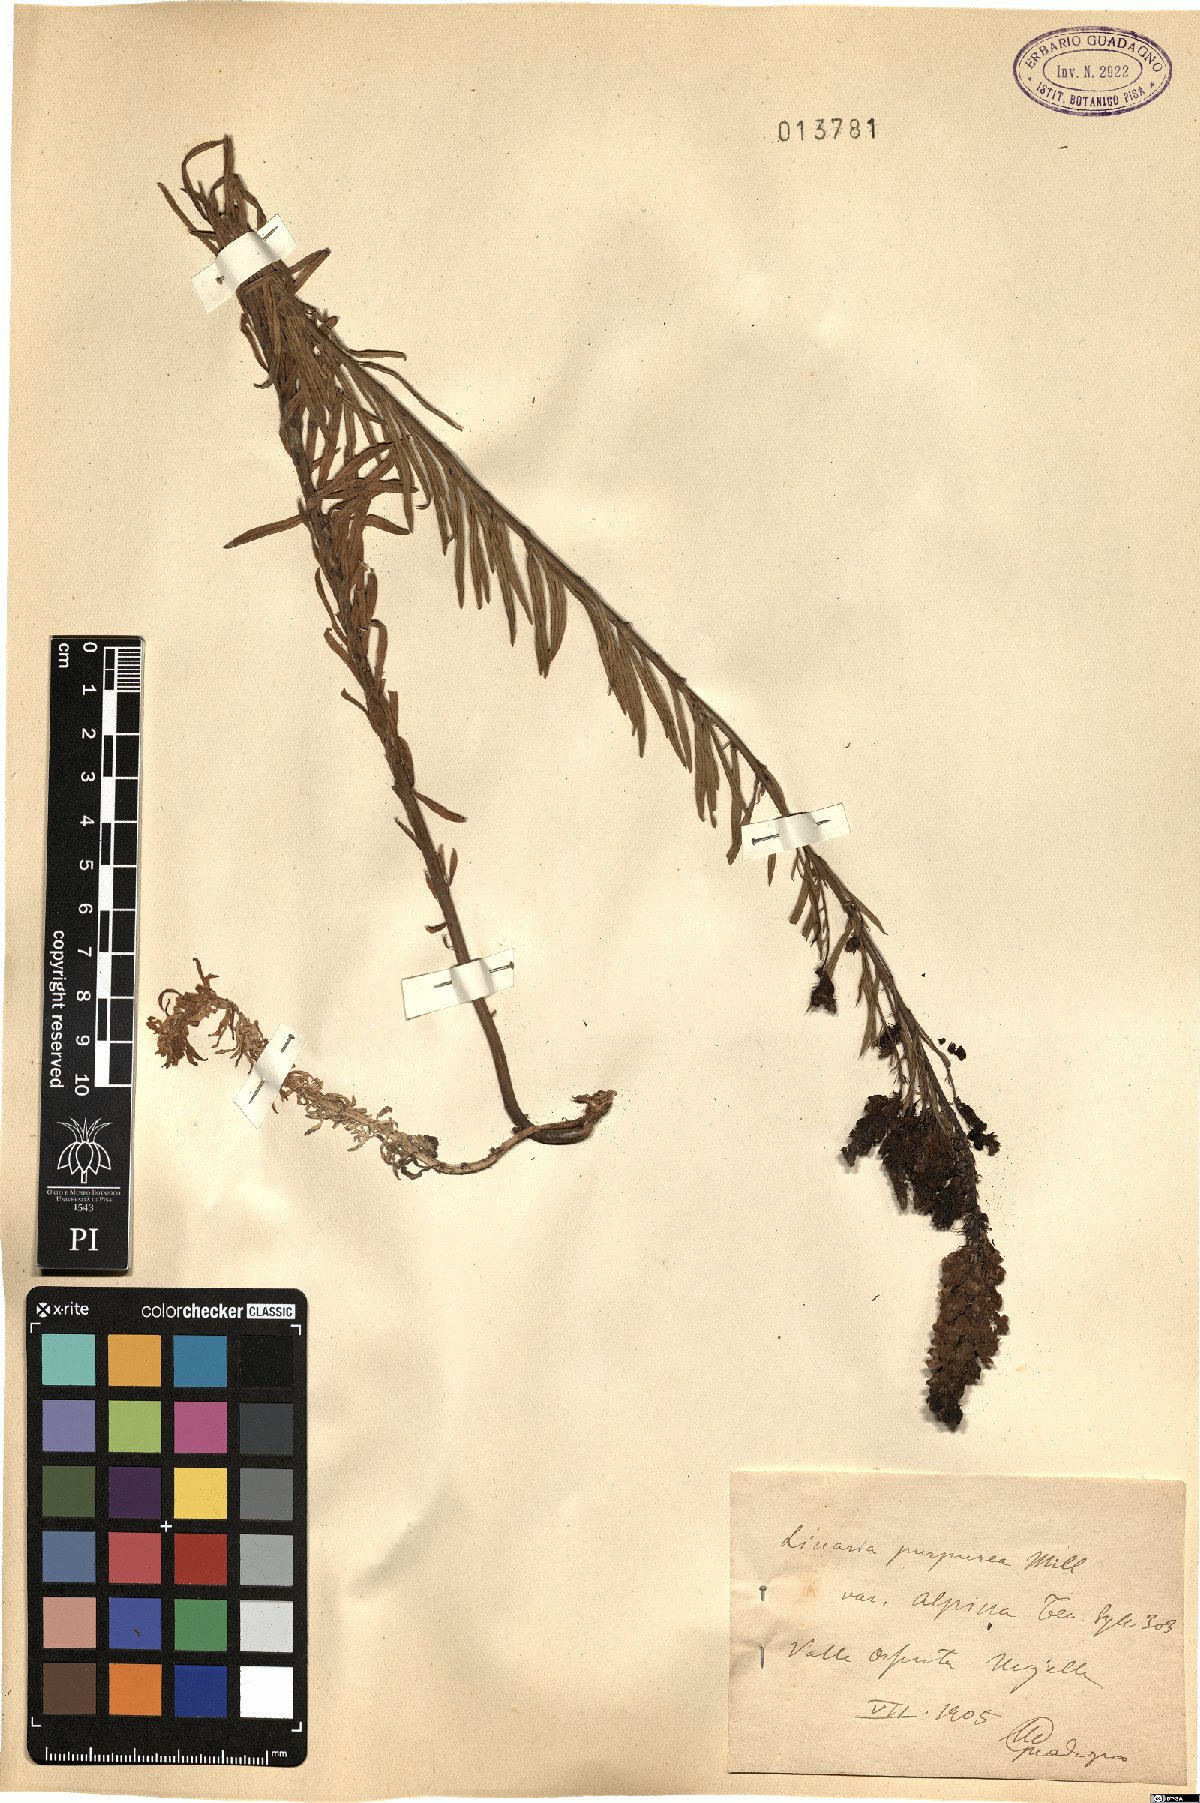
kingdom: Plantae
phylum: Tracheophyta
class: Magnoliopsida
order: Lamiales
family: Plantaginaceae
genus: Linaria
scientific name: Linaria purpurea
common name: Purple toadflax
